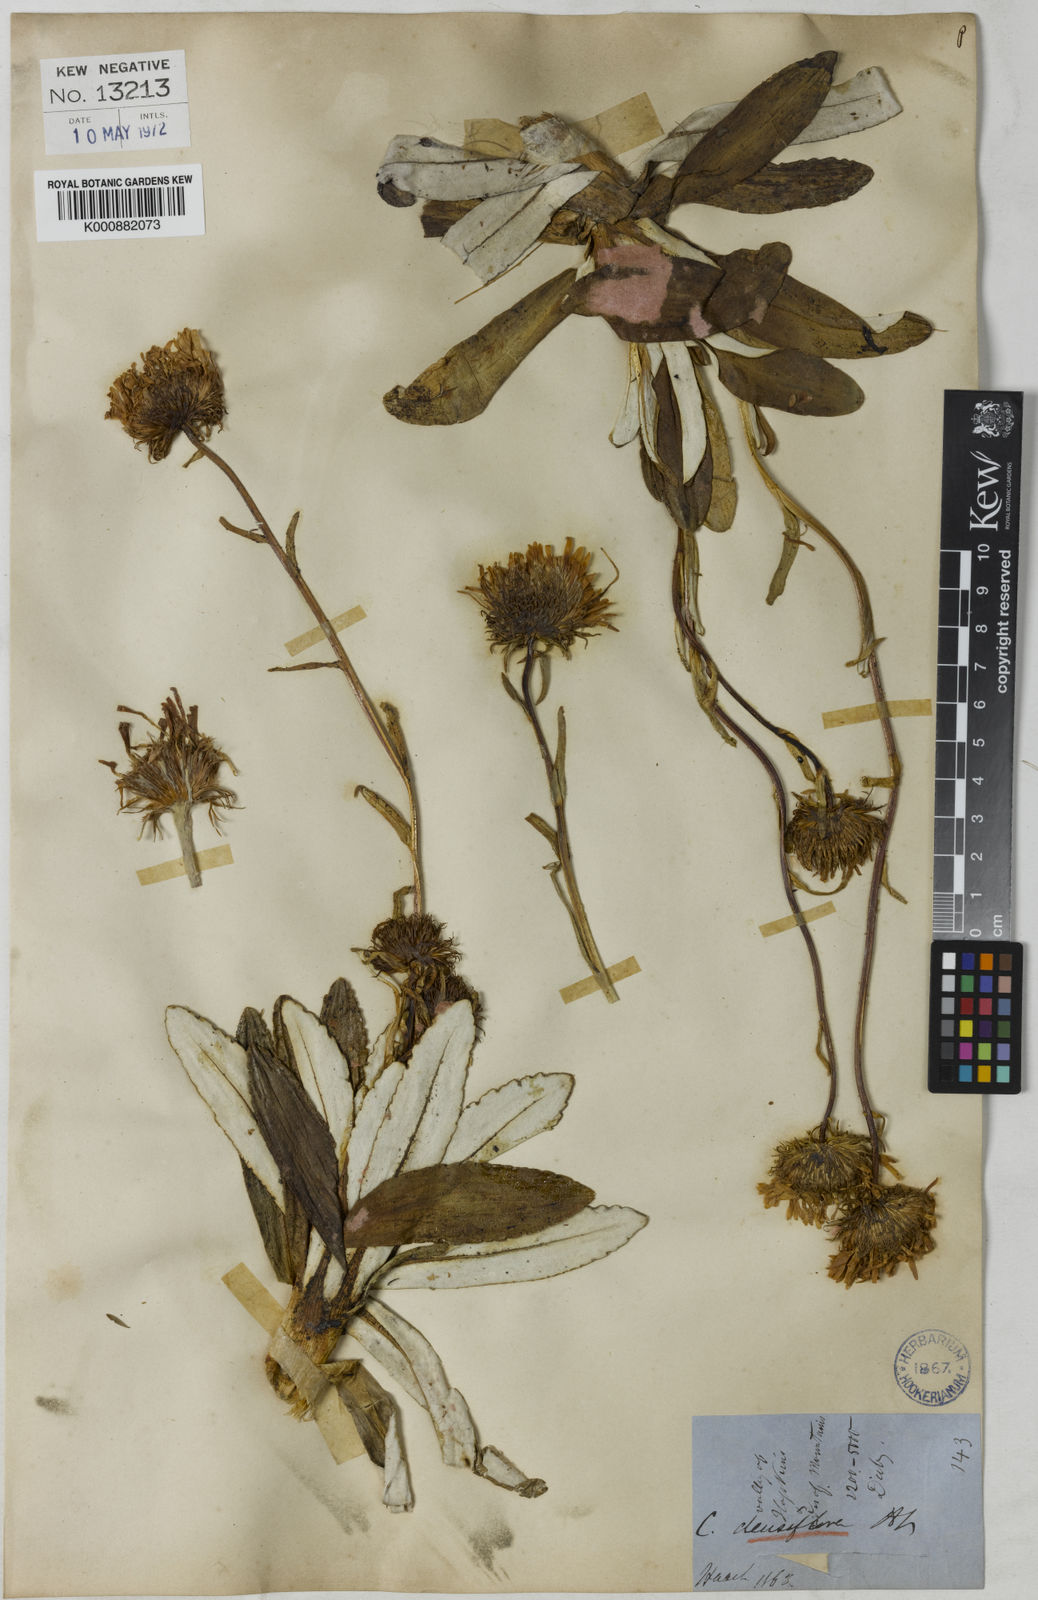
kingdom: Plantae
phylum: Tracheophyta
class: Magnoliopsida
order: Asterales
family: Asteraceae
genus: Celmisia
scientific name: Celmisia densiflora
